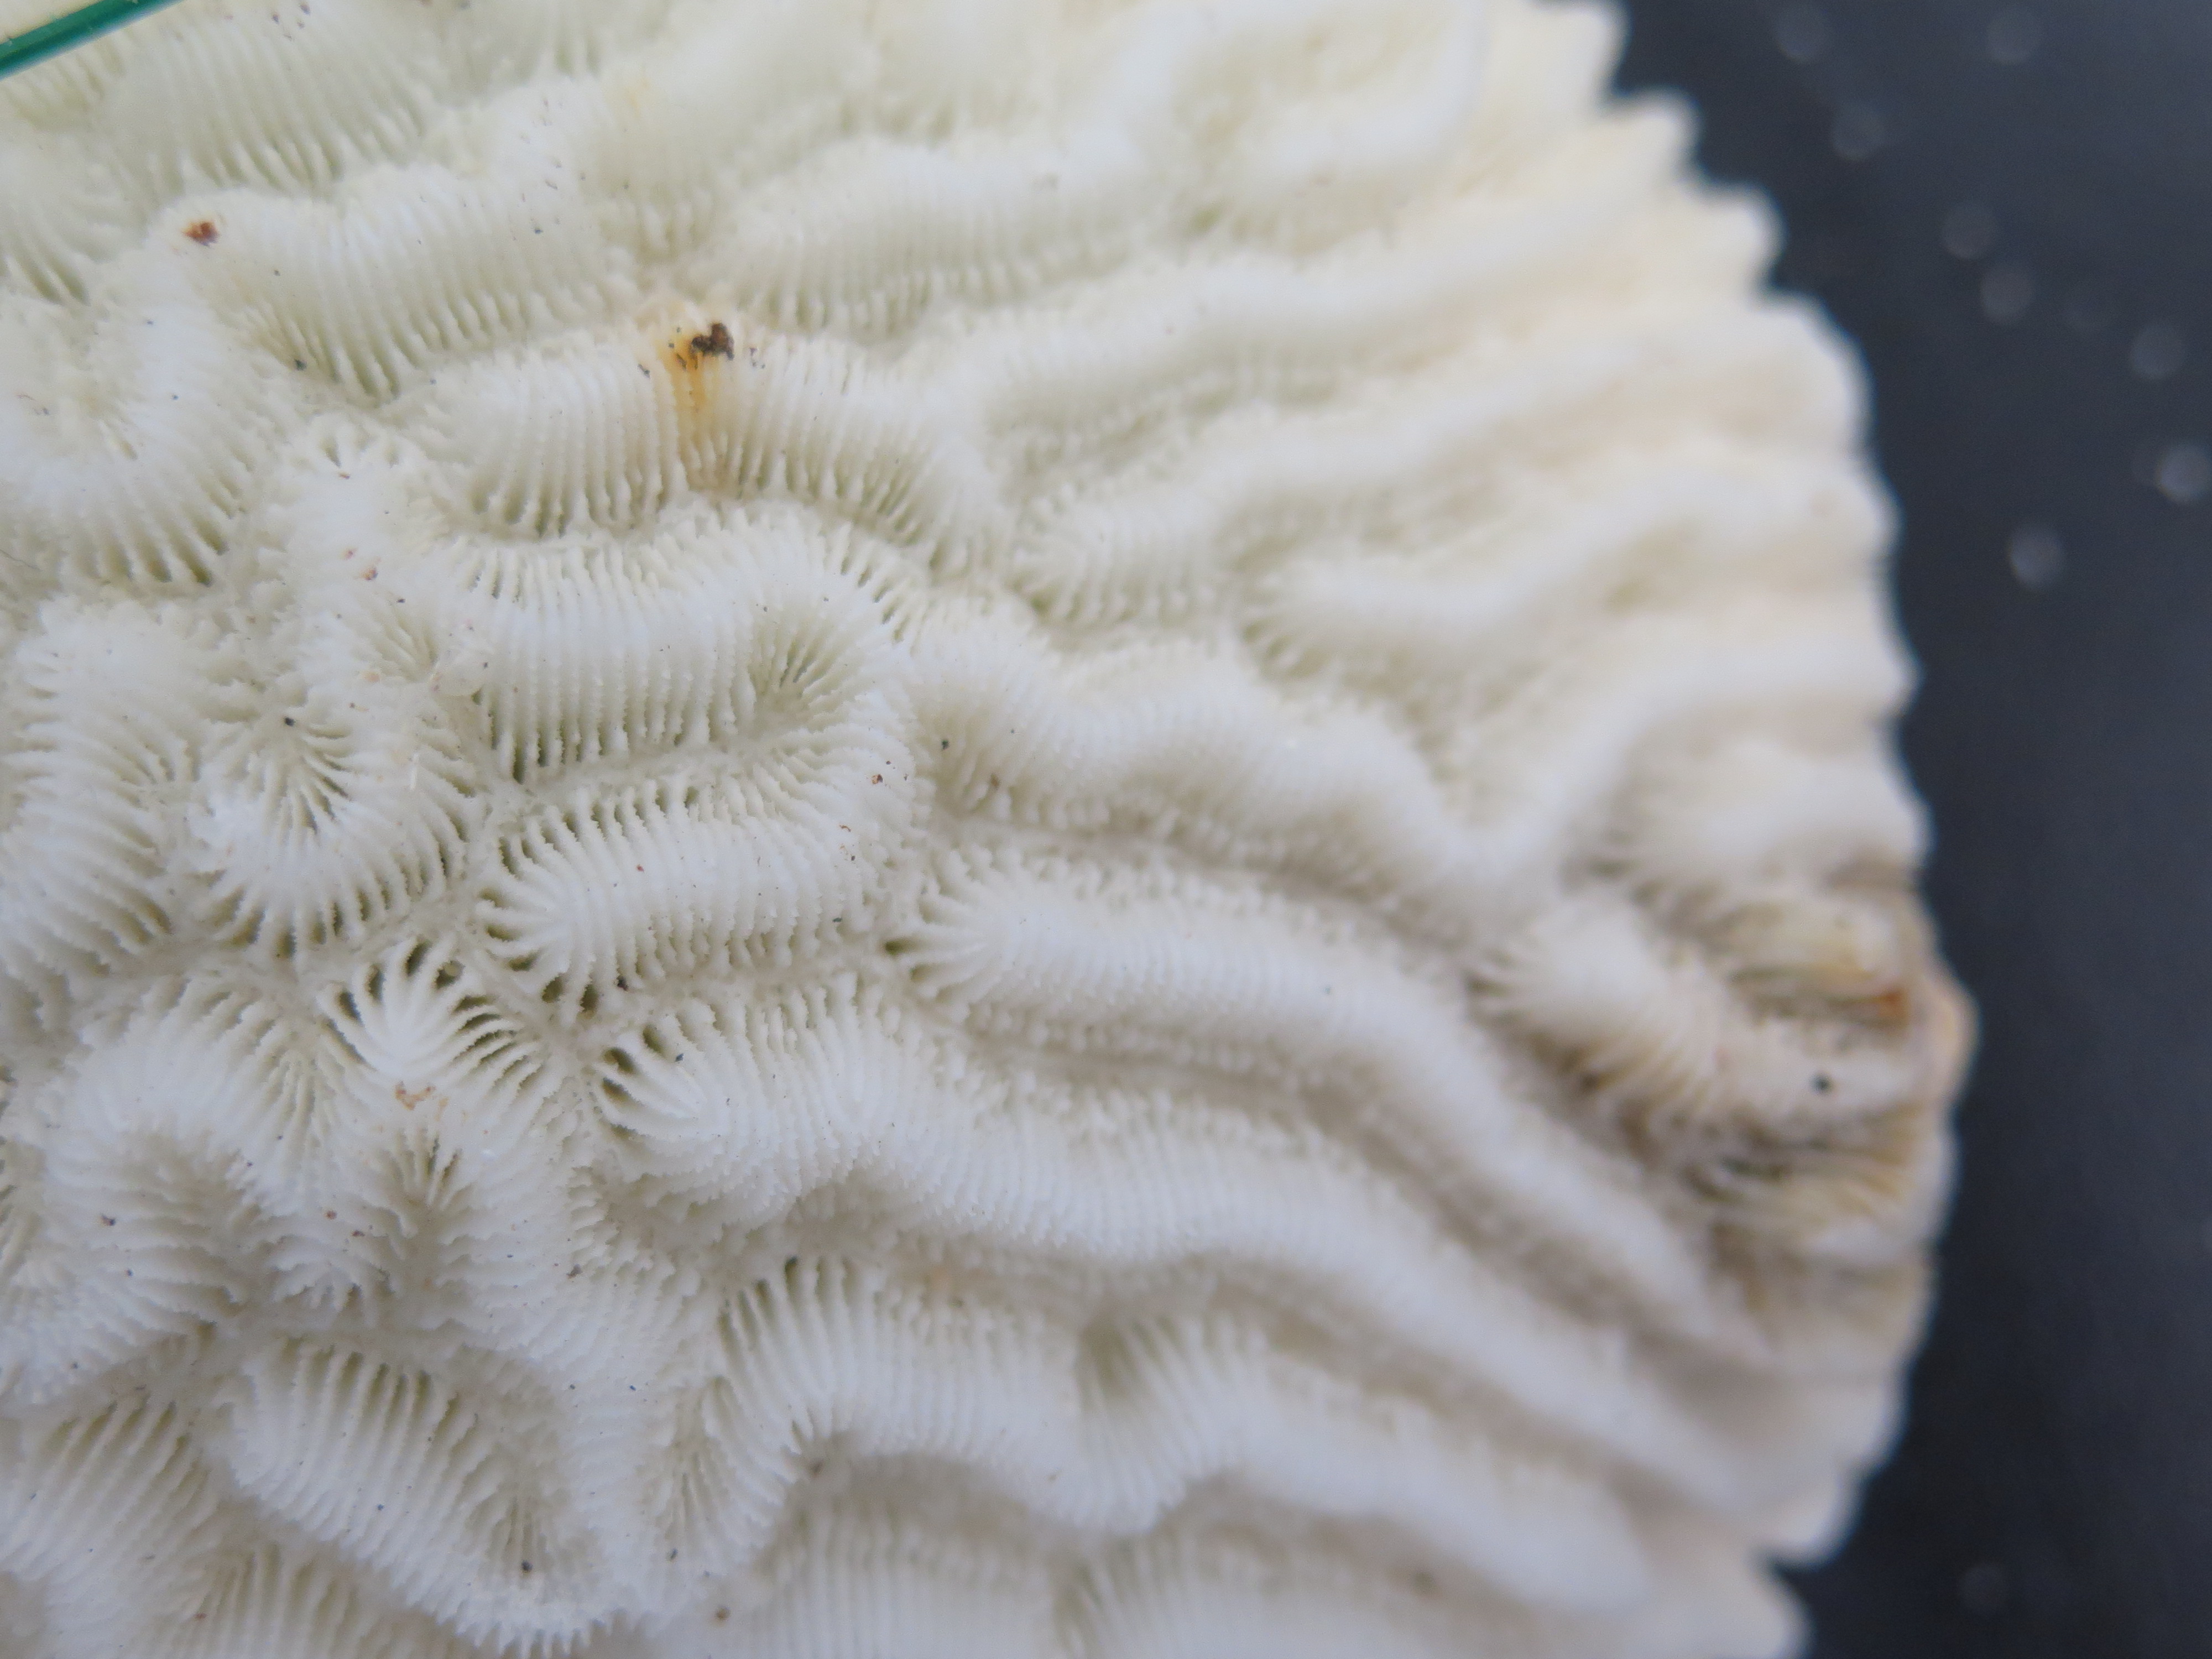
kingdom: Animalia
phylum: Cnidaria
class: Anthozoa
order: Scleractinia
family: Meandrinidae
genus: Meandrina
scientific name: Meandrina meandrites
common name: Maze coral
